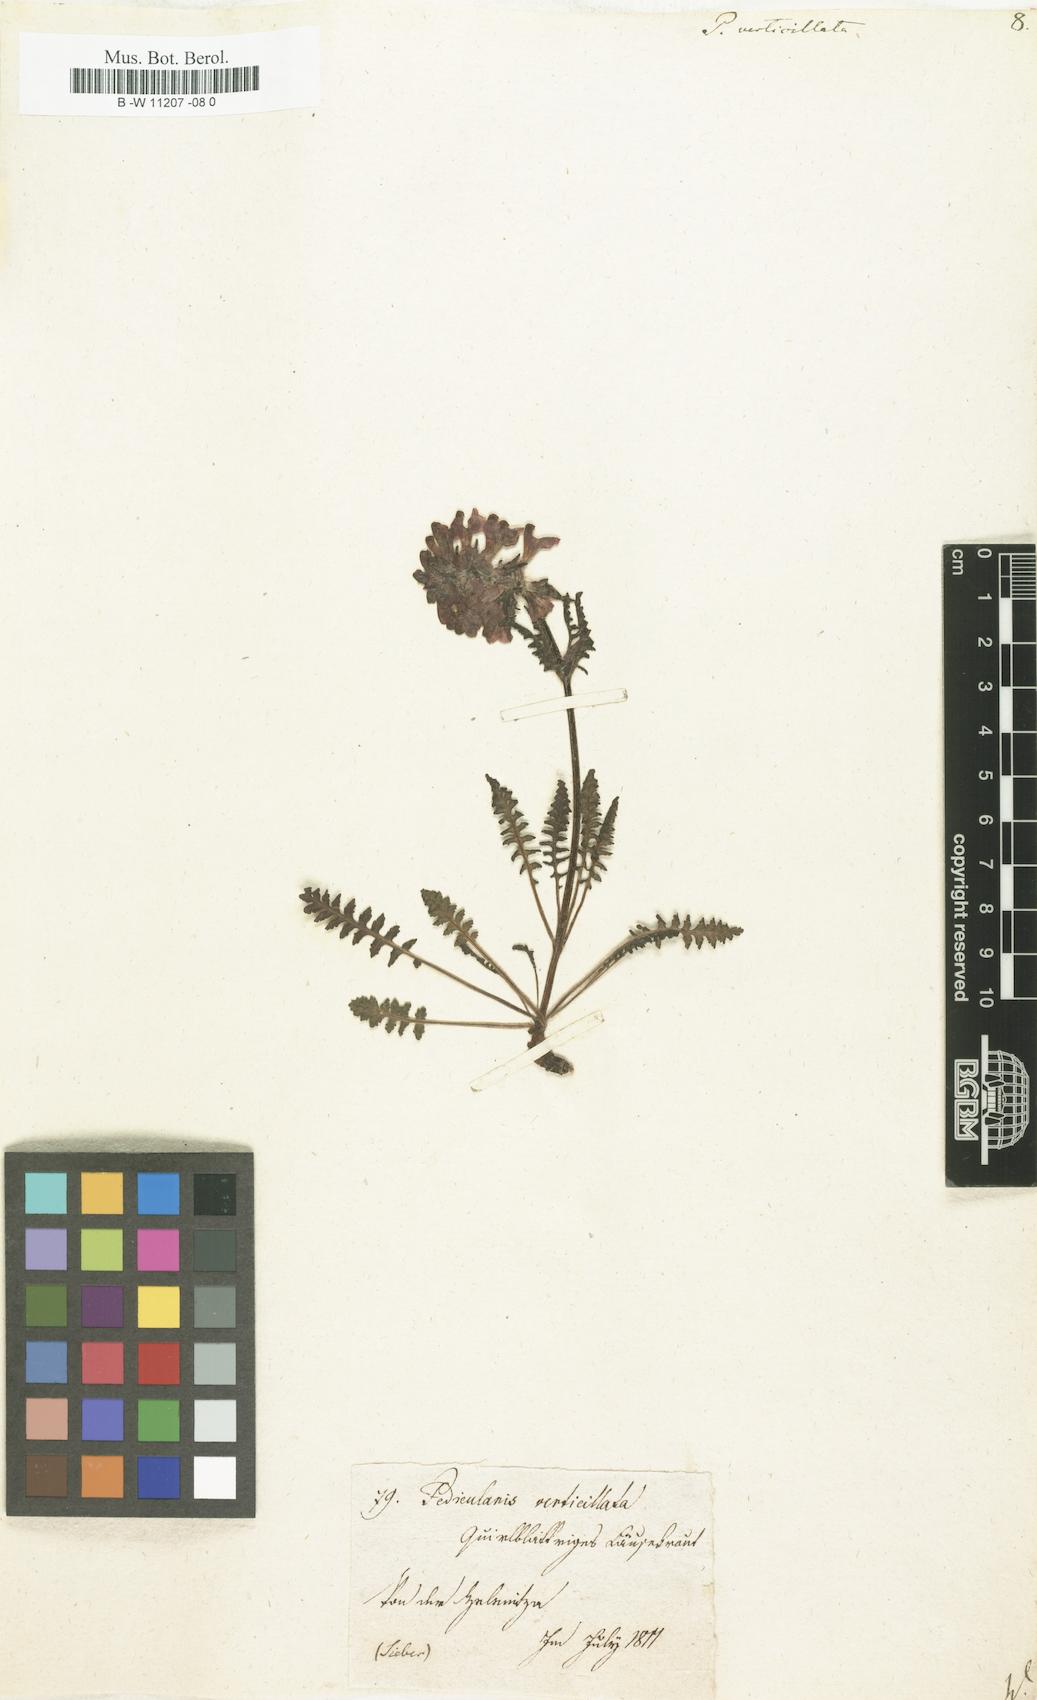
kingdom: Plantae
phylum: Tracheophyta
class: Magnoliopsida
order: Lamiales
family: Orobanchaceae
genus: Pedicularis
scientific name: Pedicularis verticillata
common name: Whorled lousewort
